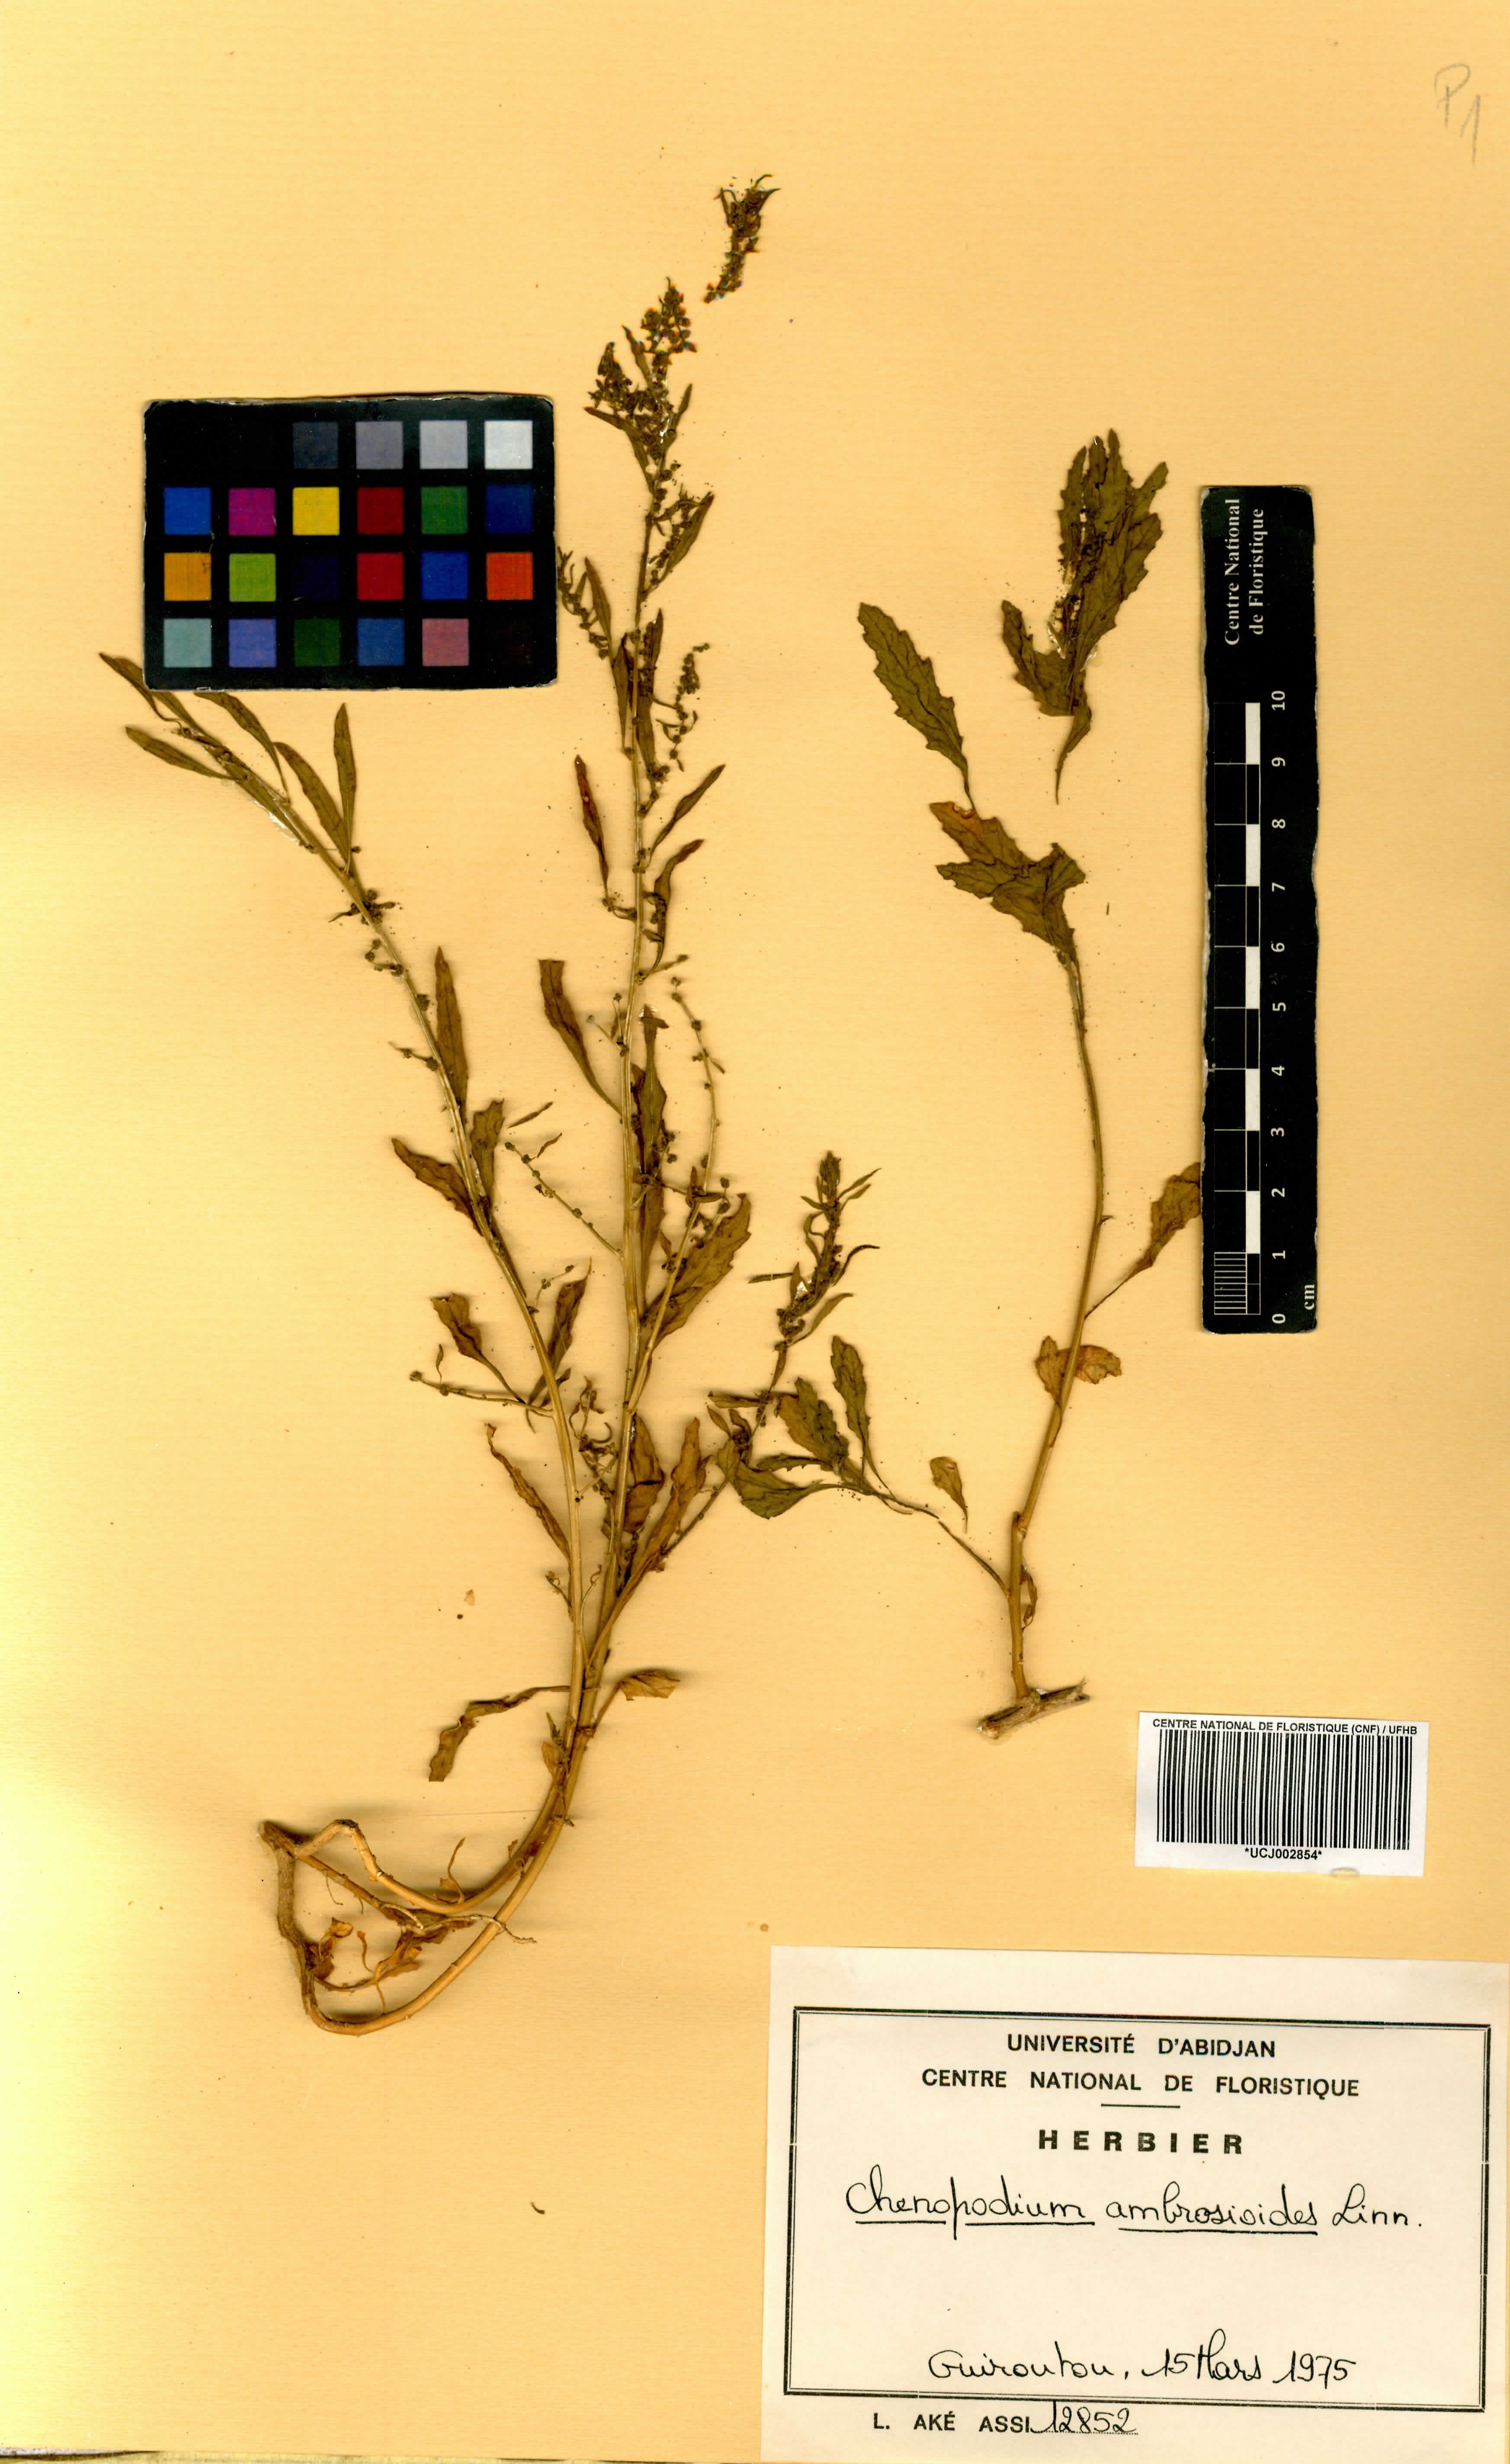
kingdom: Plantae
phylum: Tracheophyta
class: Magnoliopsida
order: Caryophyllales
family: Amaranthaceae
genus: Dysphania
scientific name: Dysphania ambrosioides
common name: Wormseed
